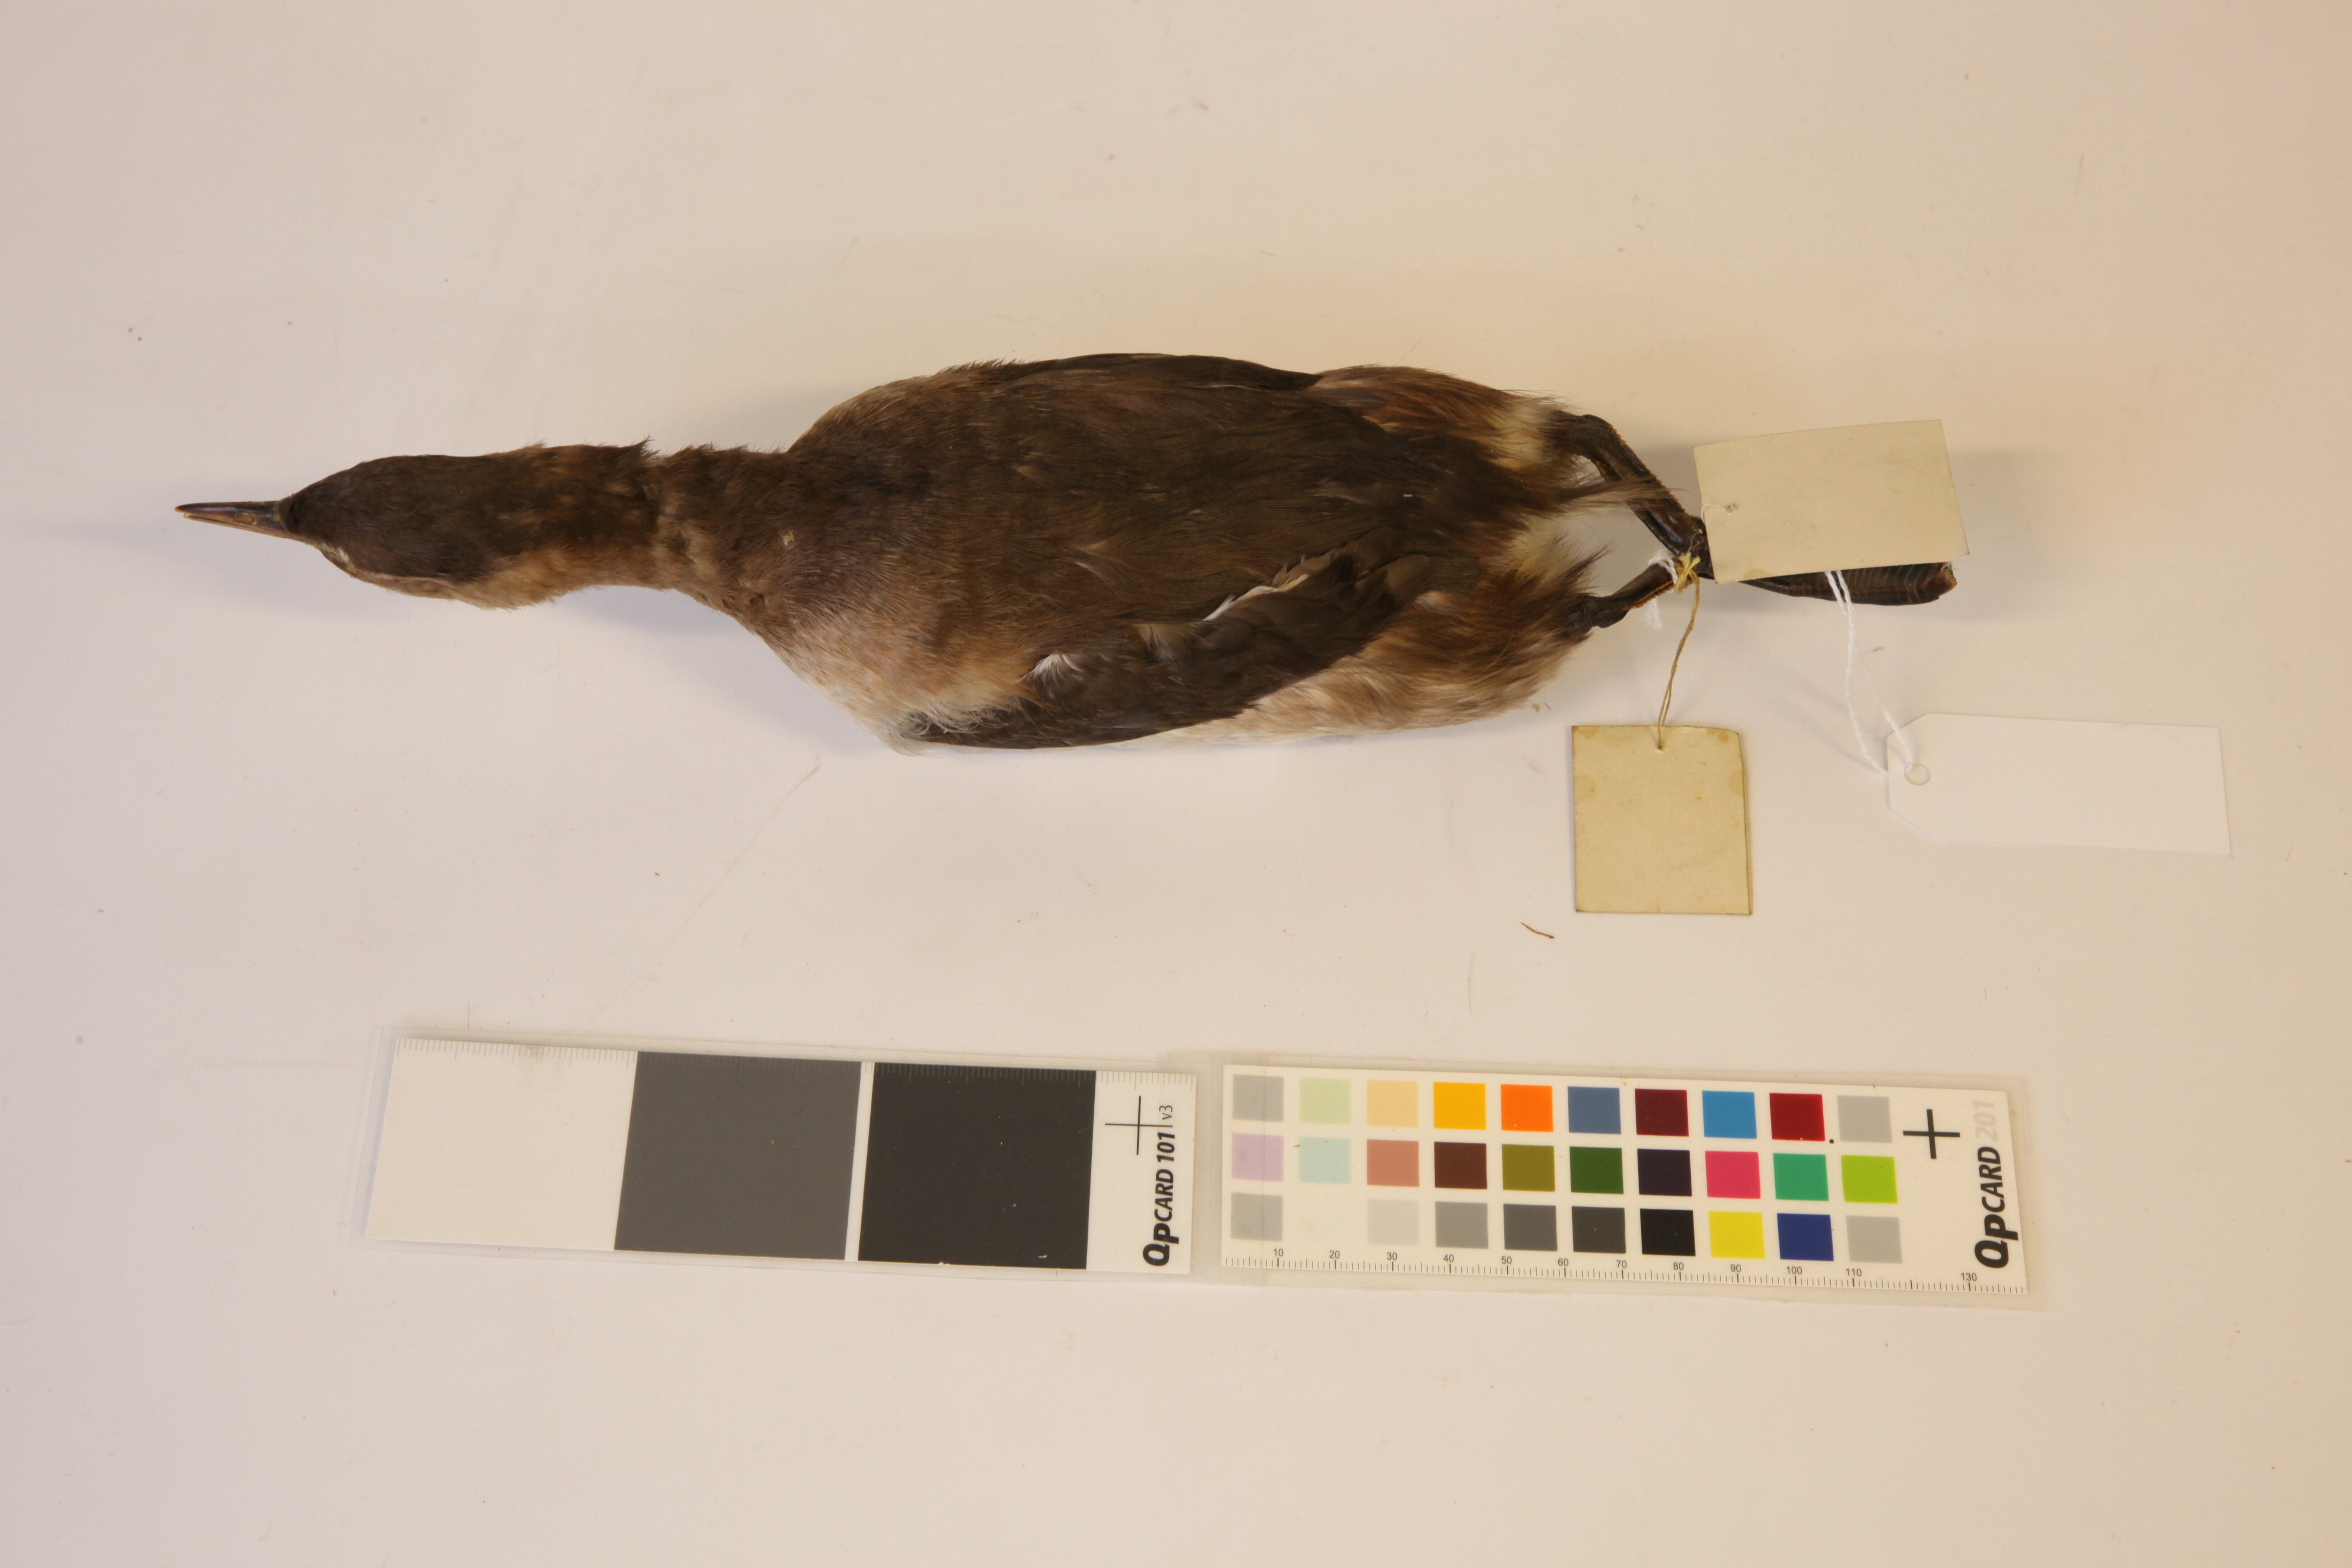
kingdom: Animalia
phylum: Chordata
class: Aves
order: Podicipediformes
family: Podicipedidae
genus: Tachybaptus
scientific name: Tachybaptus ruficollis
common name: Little grebe
